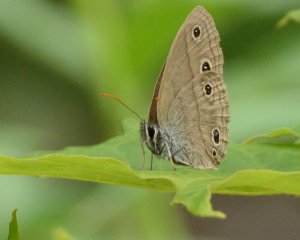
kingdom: Animalia
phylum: Arthropoda
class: Insecta
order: Lepidoptera
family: Nymphalidae
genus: Euptychia
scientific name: Euptychia cymela
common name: Little Wood Satyr
